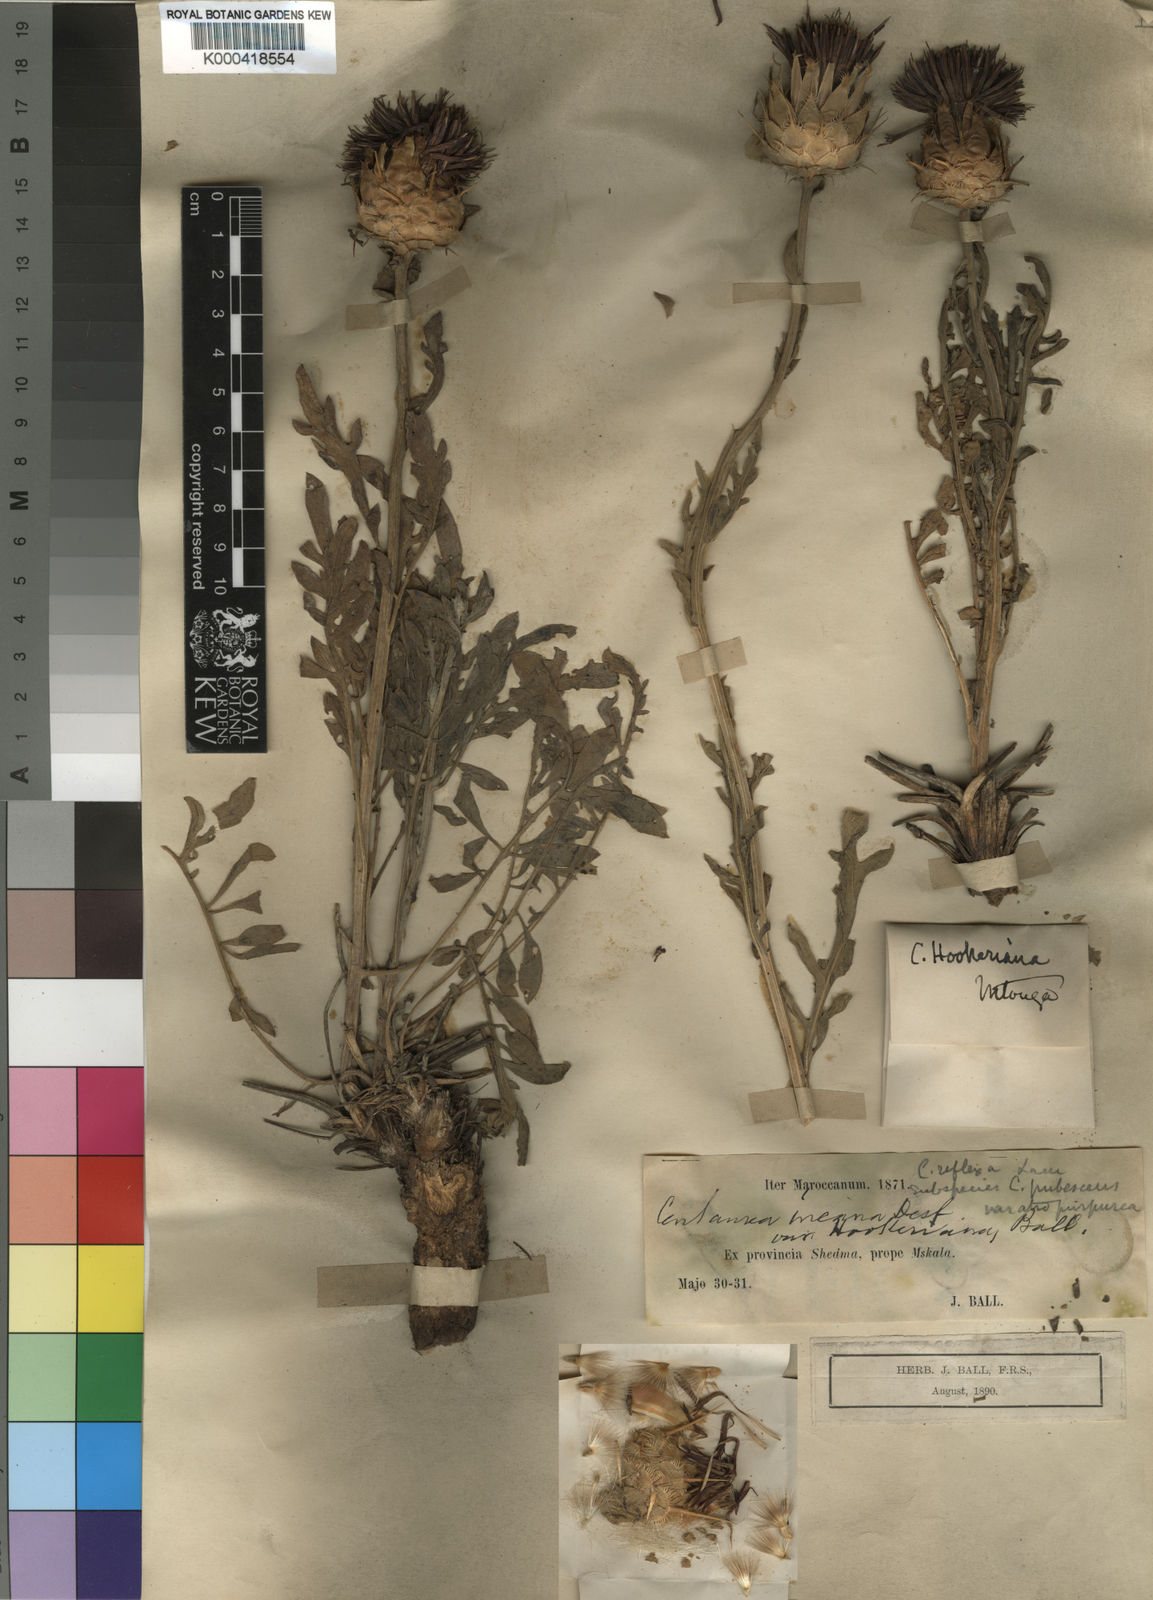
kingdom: Plantae
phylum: Tracheophyta
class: Magnoliopsida
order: Asterales
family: Asteraceae
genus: Centaurea
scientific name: Centaurea
